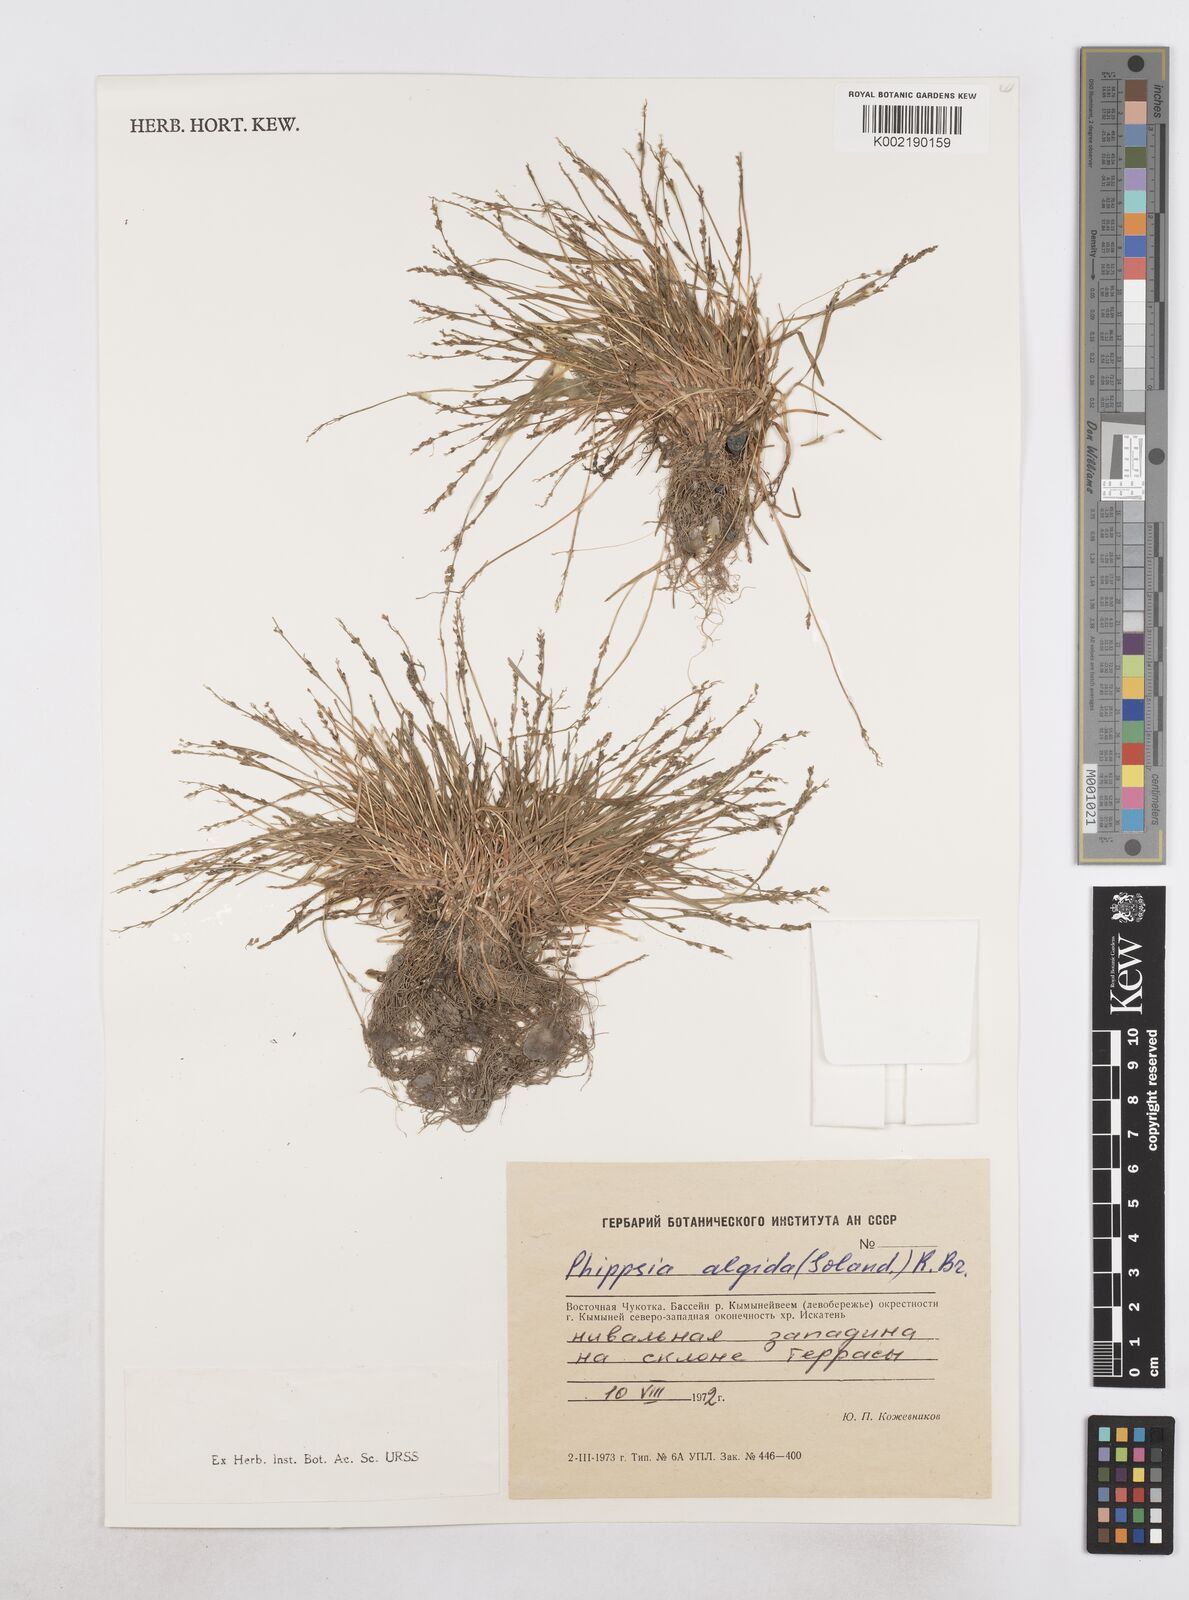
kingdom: Plantae
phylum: Tracheophyta
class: Liliopsida
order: Poales
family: Poaceae
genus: Phippsia
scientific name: Phippsia algida
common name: Ice grass
